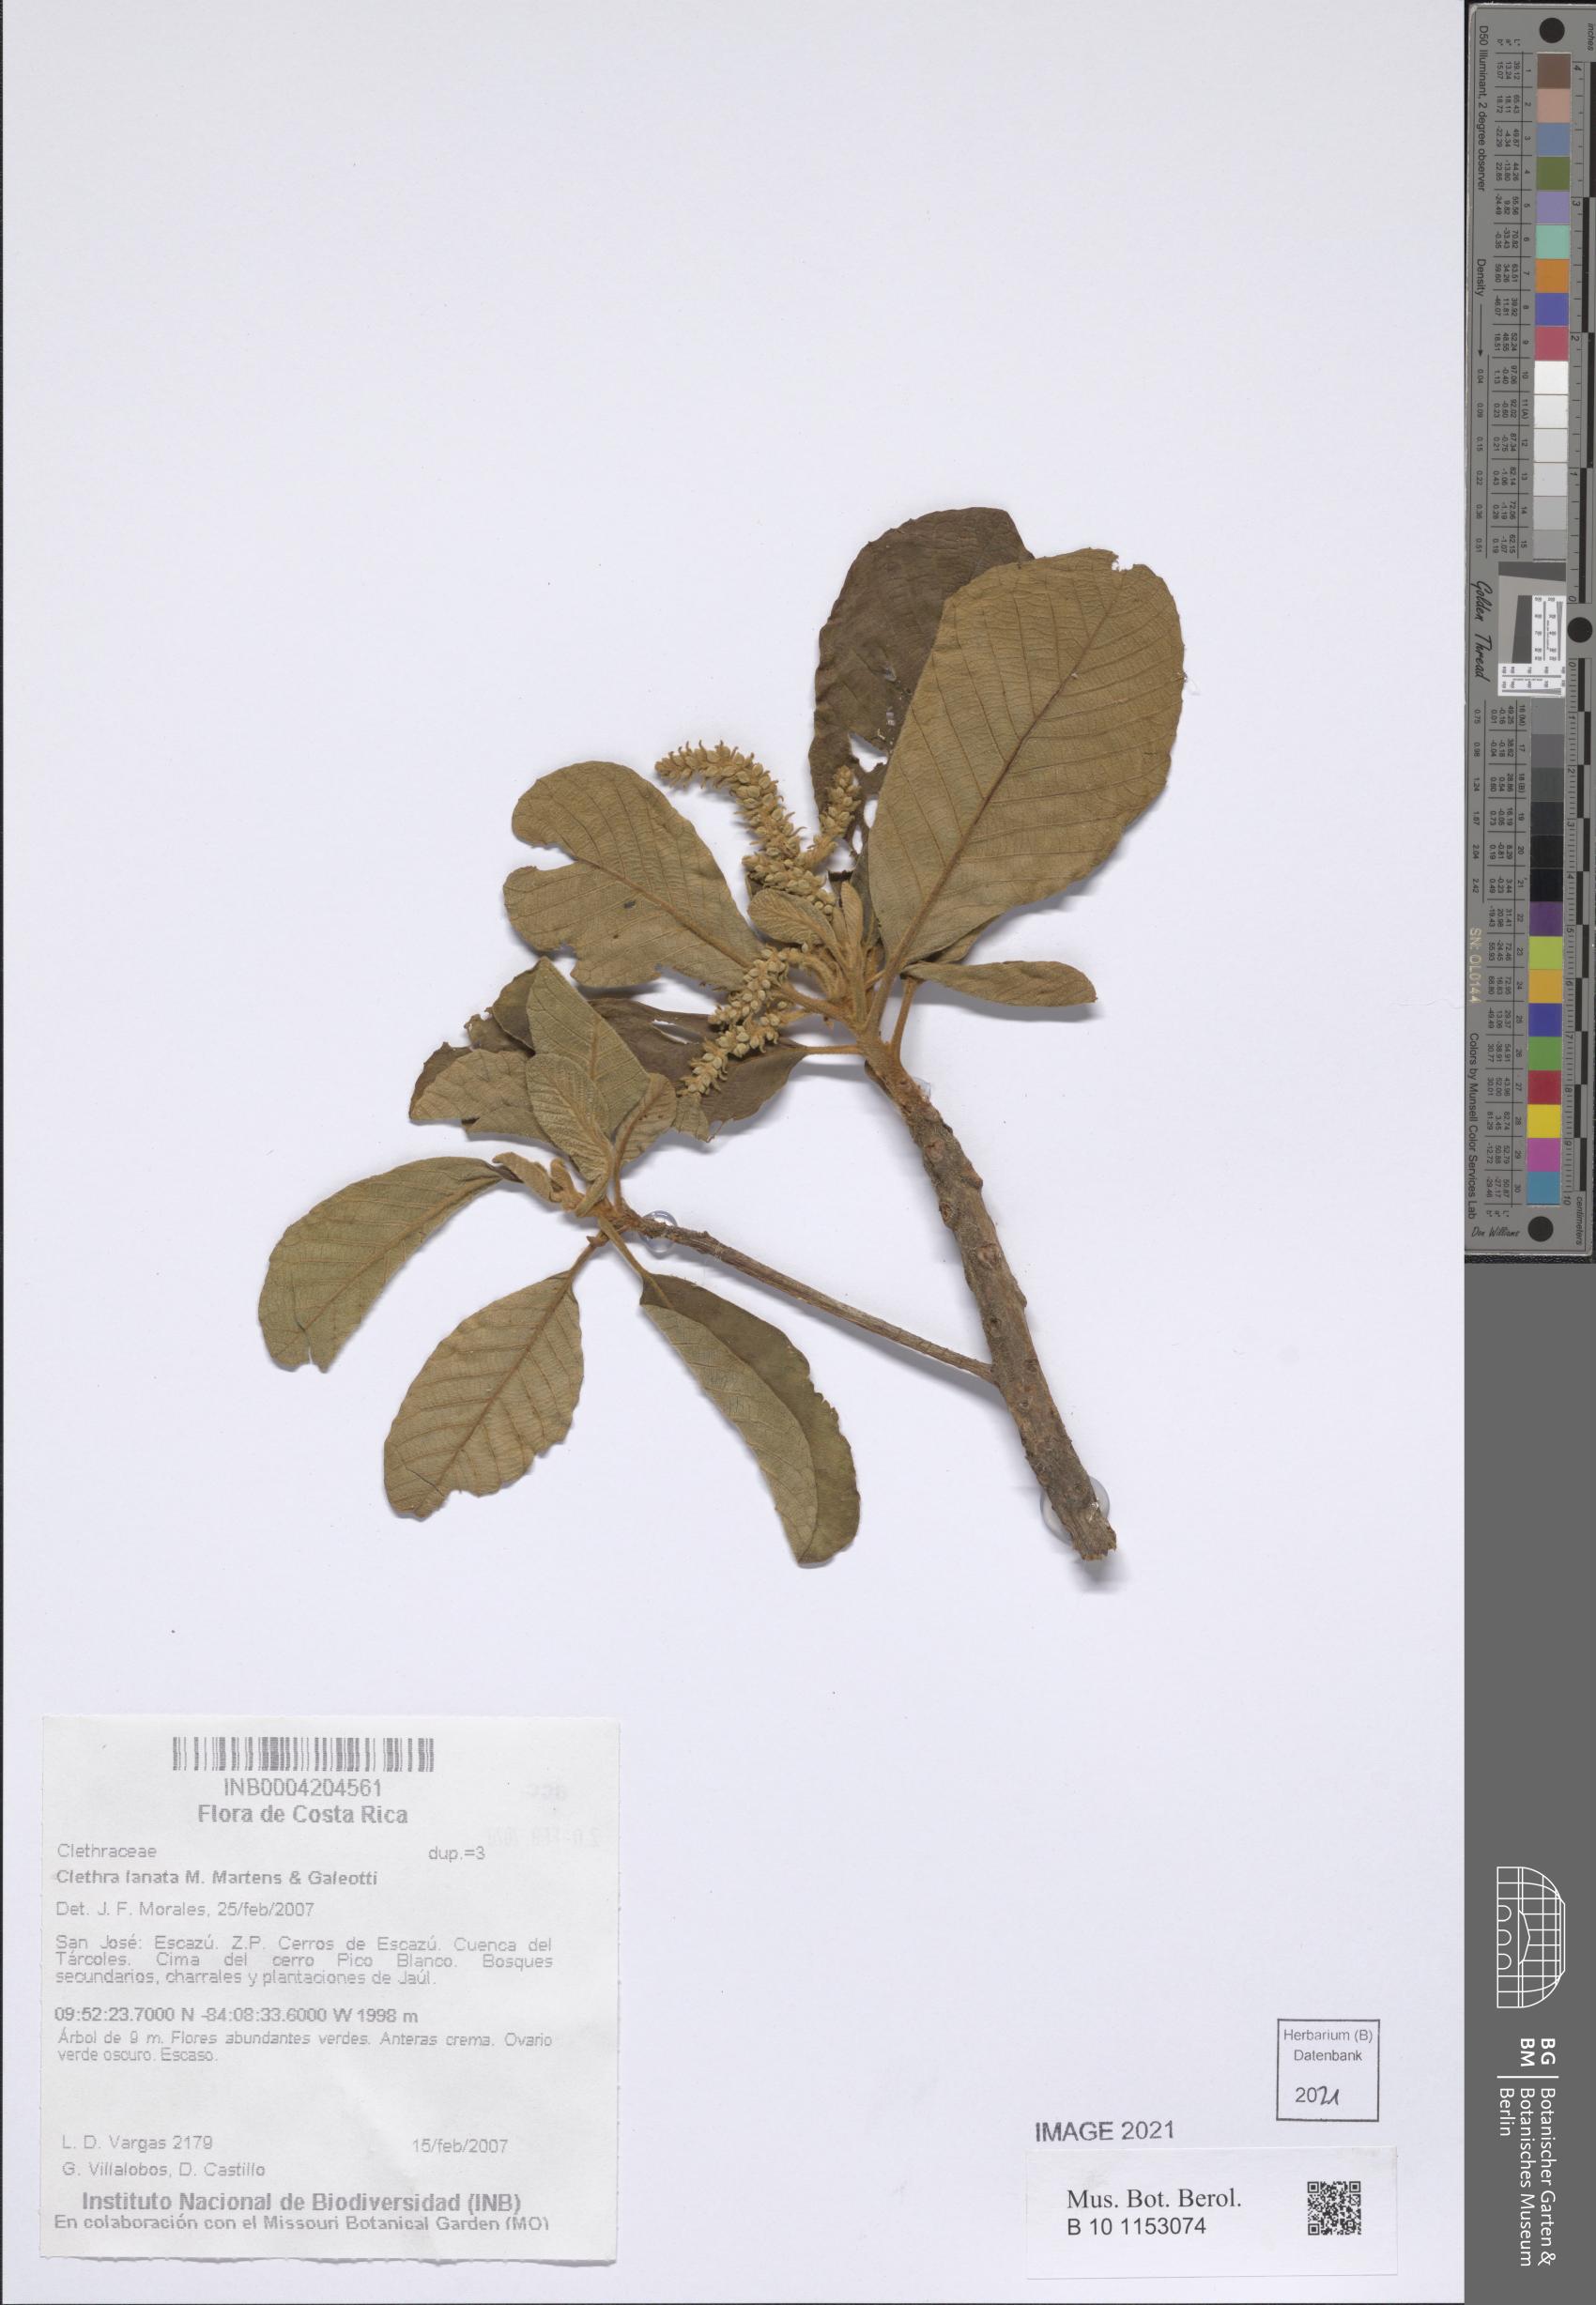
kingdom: Plantae
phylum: Tracheophyta
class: Magnoliopsida
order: Ericales
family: Clethraceae
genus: Clethra
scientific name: Clethra lanata
